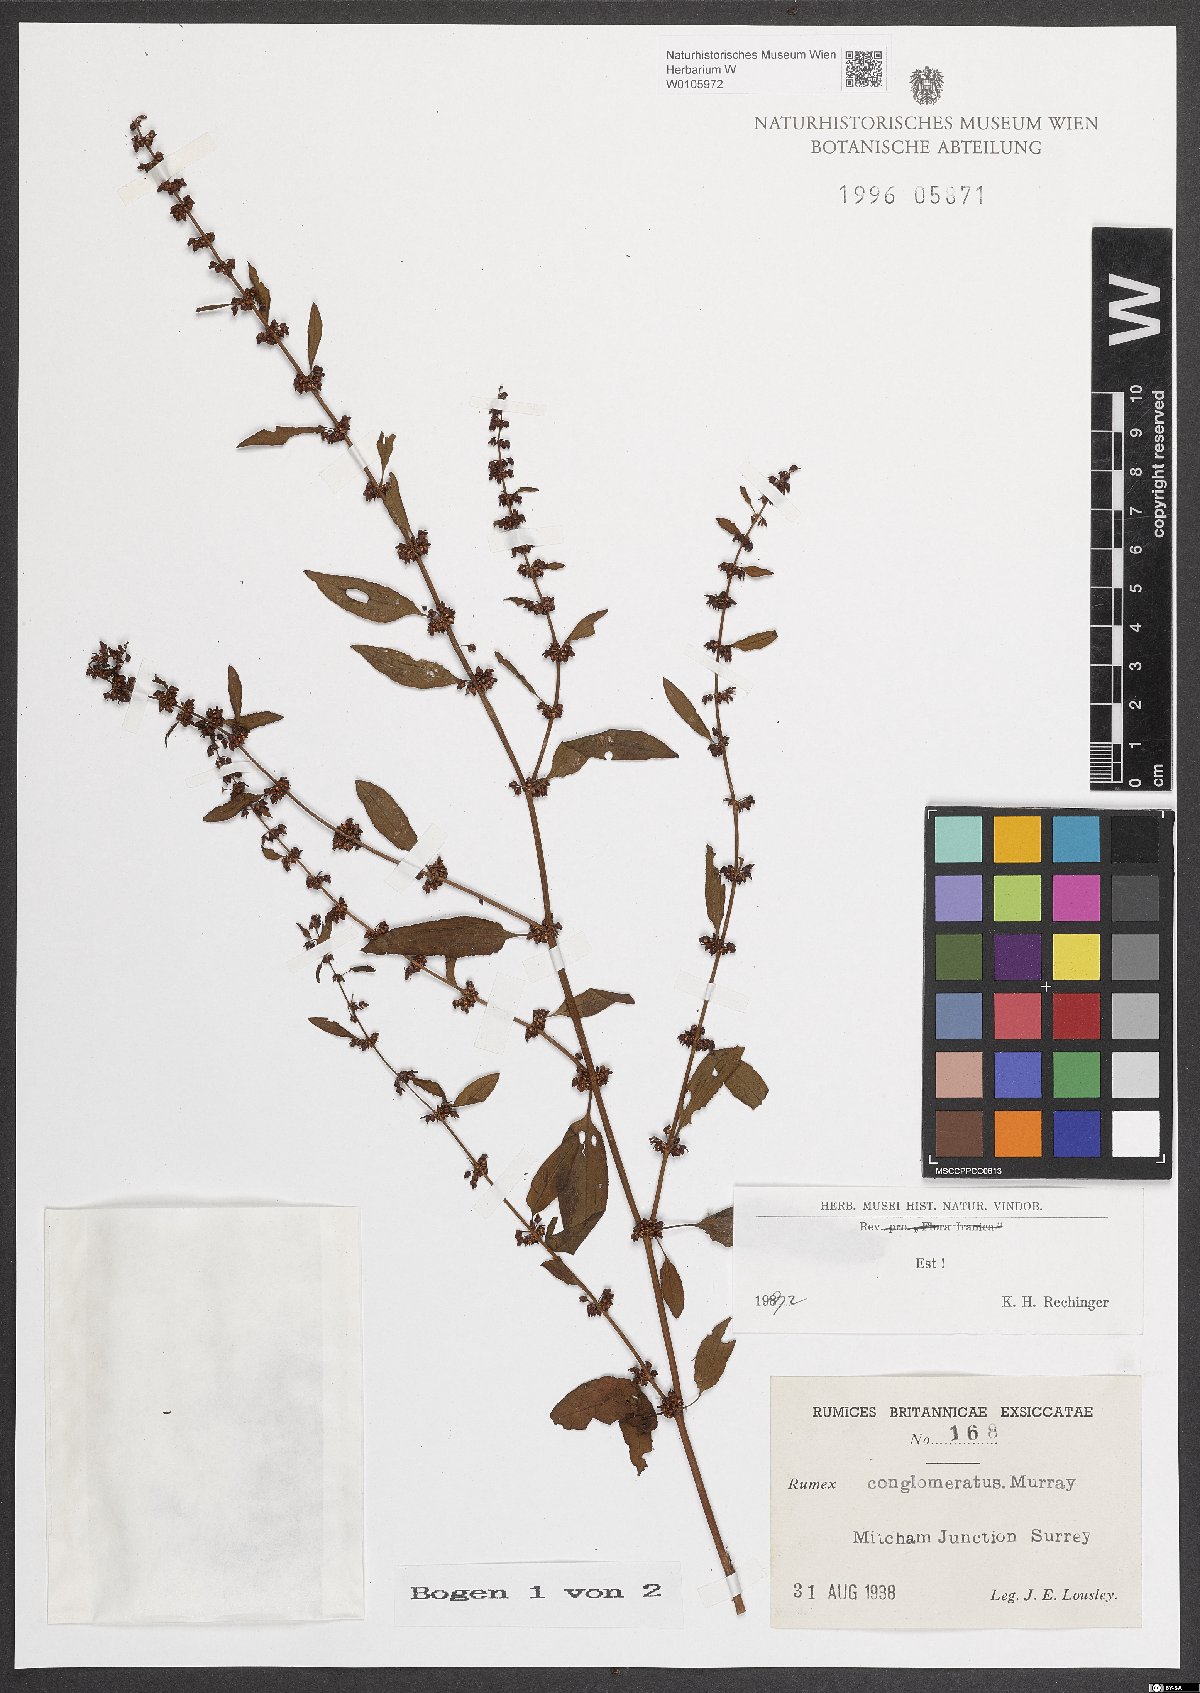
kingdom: Plantae
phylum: Tracheophyta
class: Magnoliopsida
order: Caryophyllales
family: Polygonaceae
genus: Rumex
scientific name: Rumex conglomeratus
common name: Clustered dock
